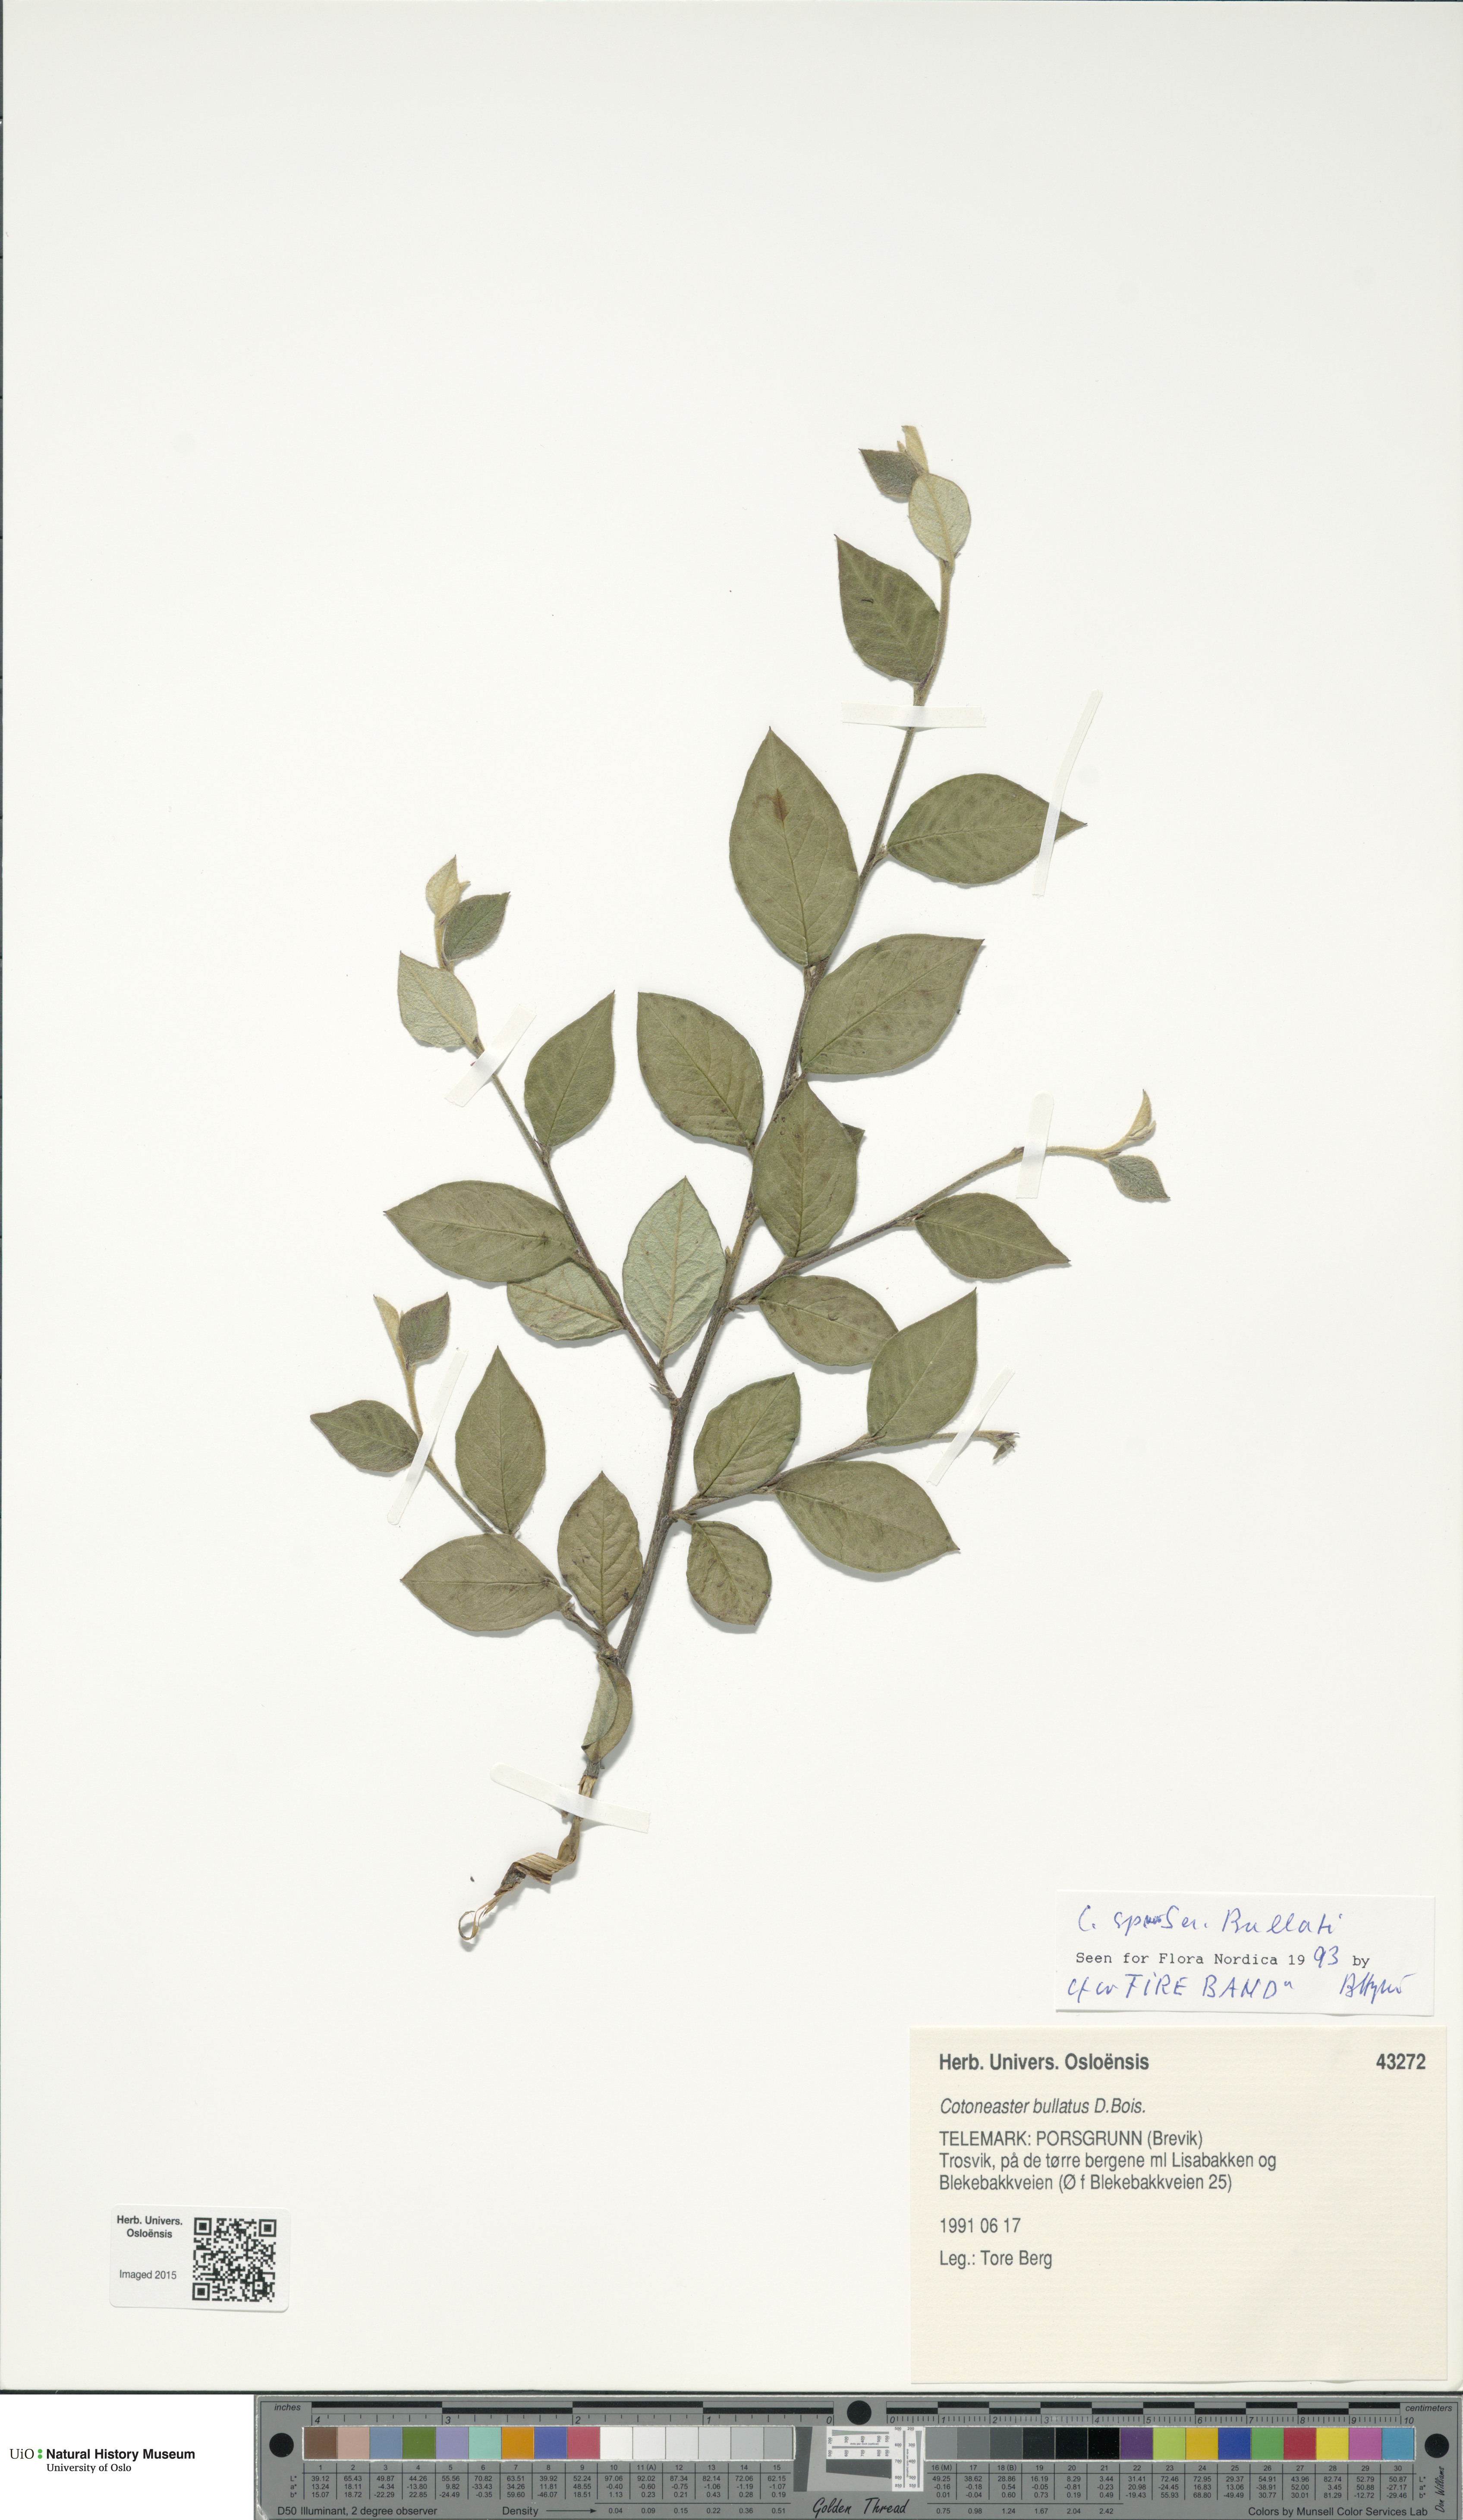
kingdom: Plantae
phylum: Tracheophyta
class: Magnoliopsida
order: Rosales
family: Rosaceae
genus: Cotoneaster
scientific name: Cotoneaster
